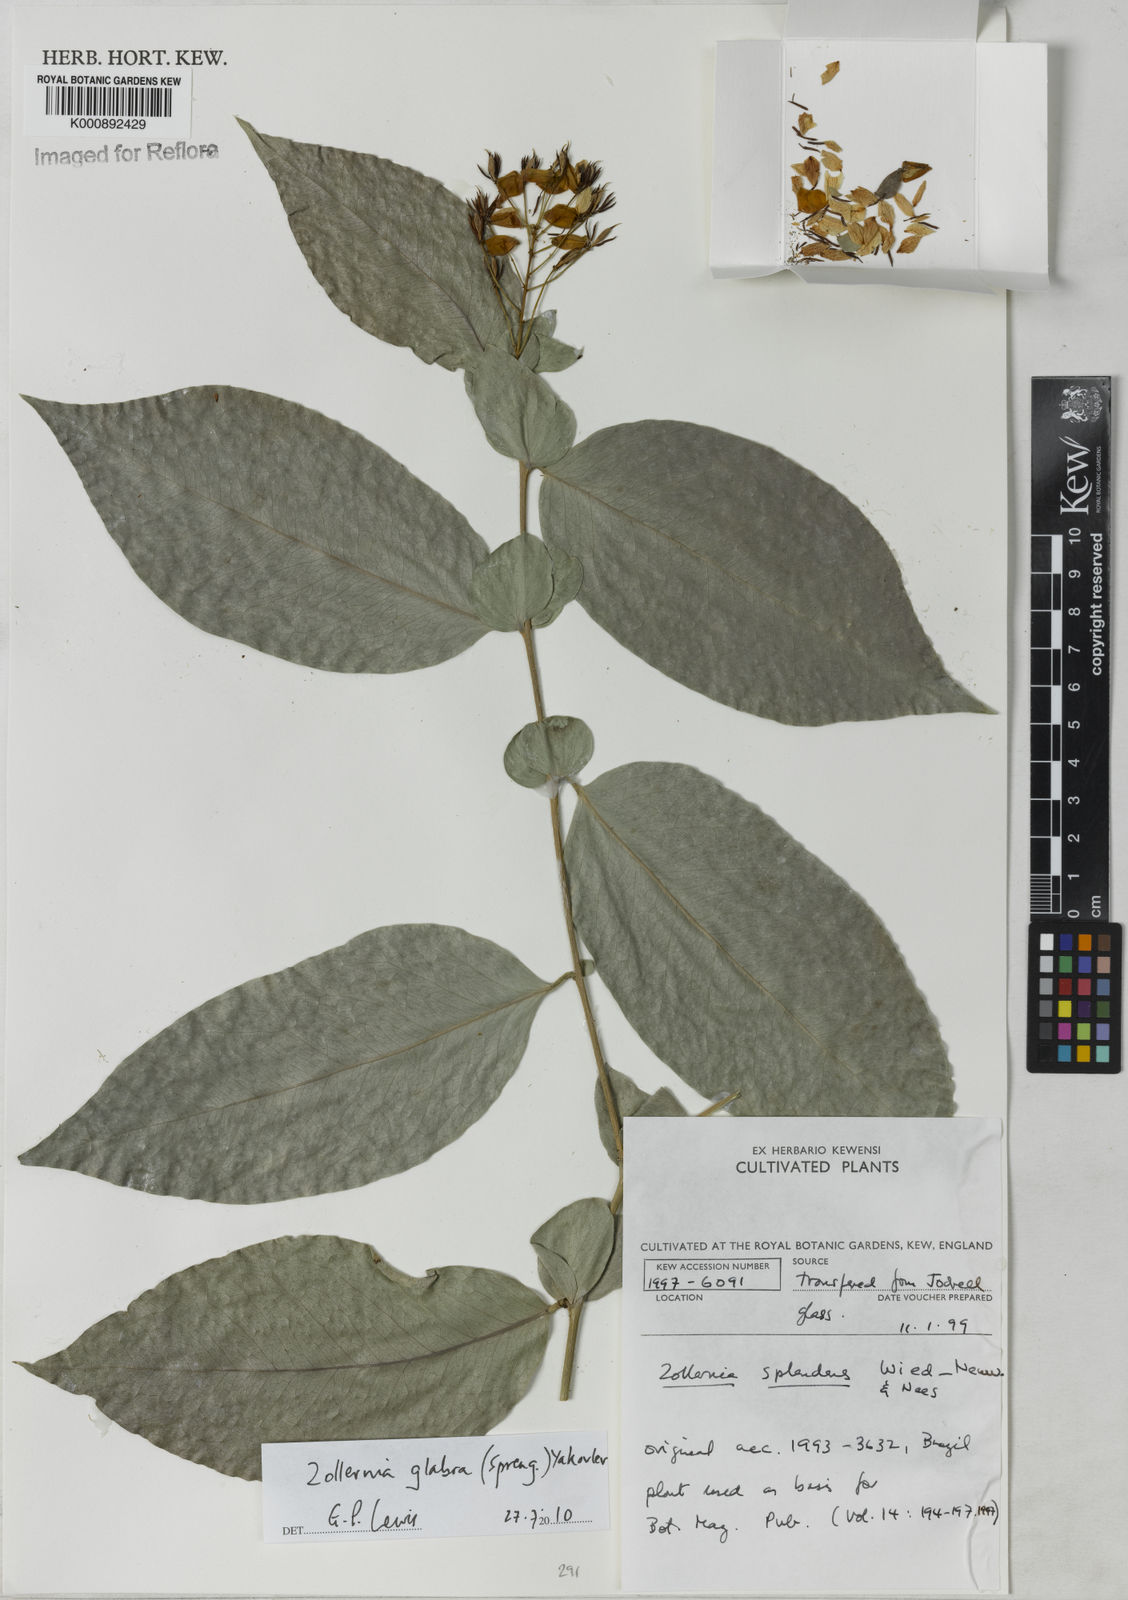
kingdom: Plantae
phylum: Tracheophyta
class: Magnoliopsida
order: Fabales
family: Fabaceae
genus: Zollernia
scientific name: Zollernia glabra
